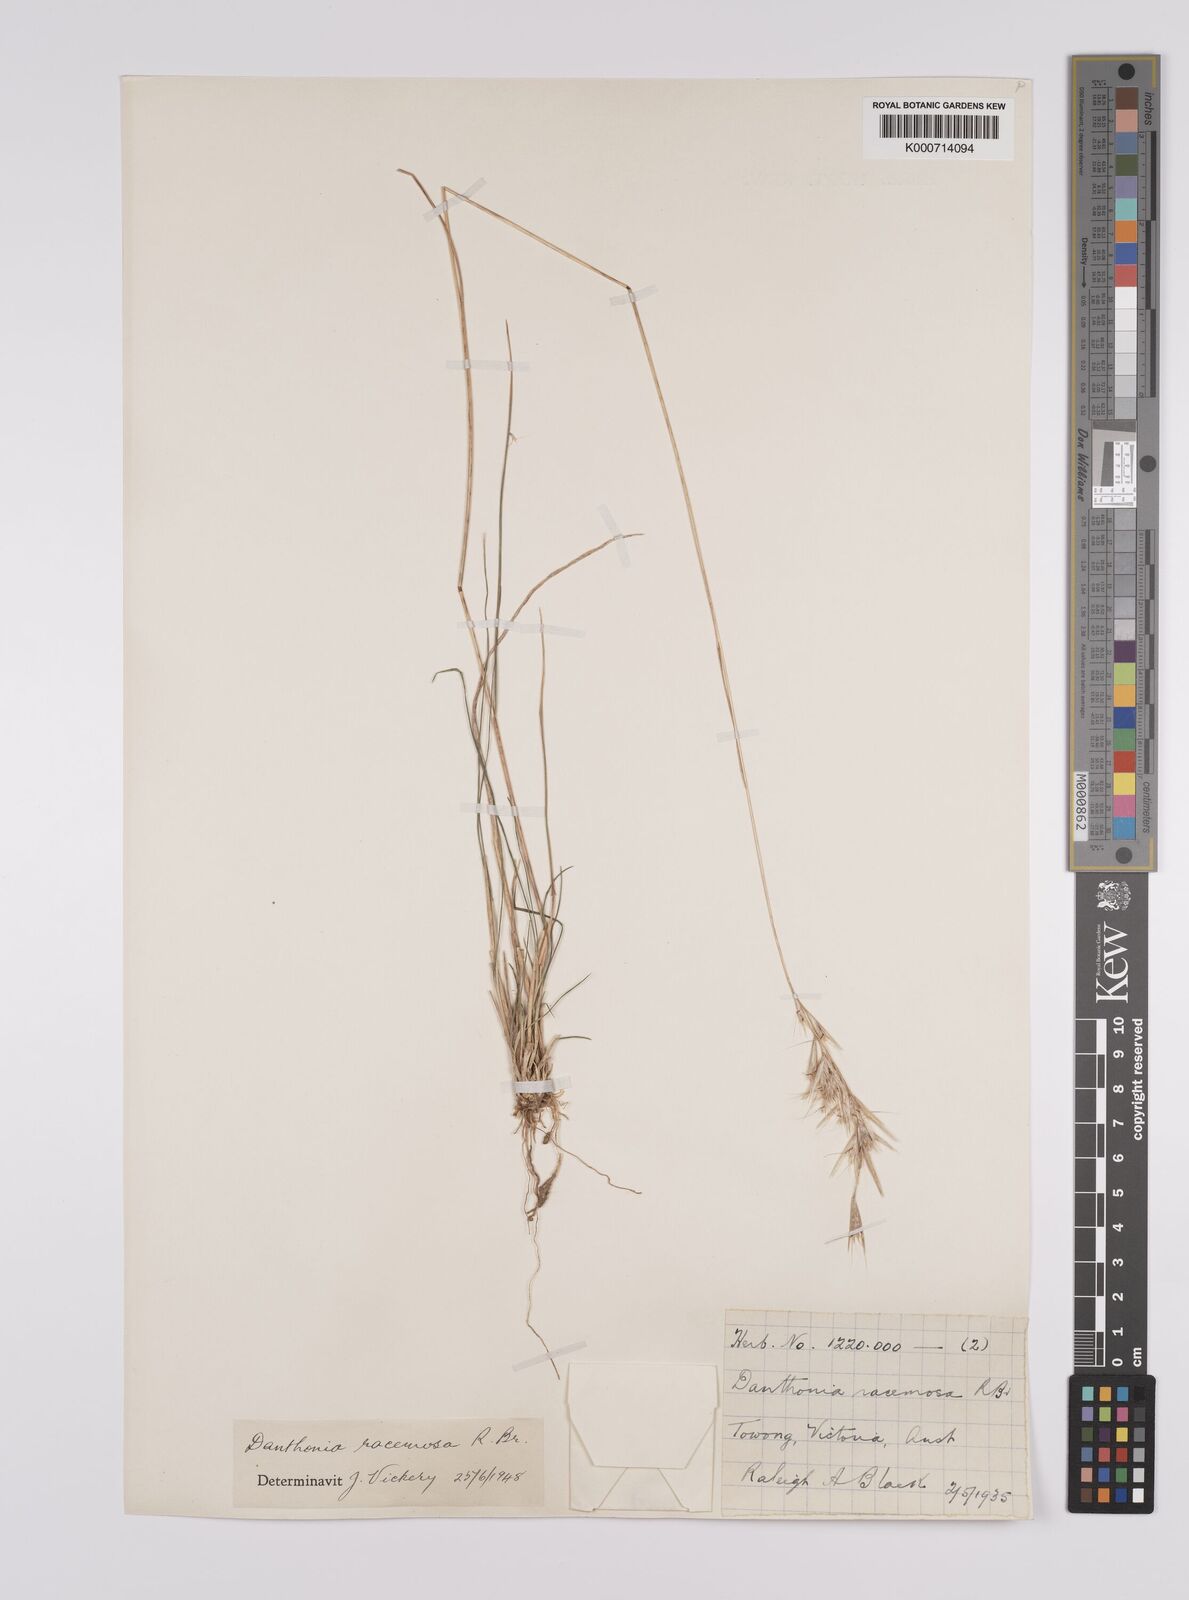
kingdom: Plantae
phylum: Tracheophyta
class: Liliopsida
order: Poales
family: Poaceae
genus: Rytidosperma
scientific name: Rytidosperma racemosum
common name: Wallaby-grass
